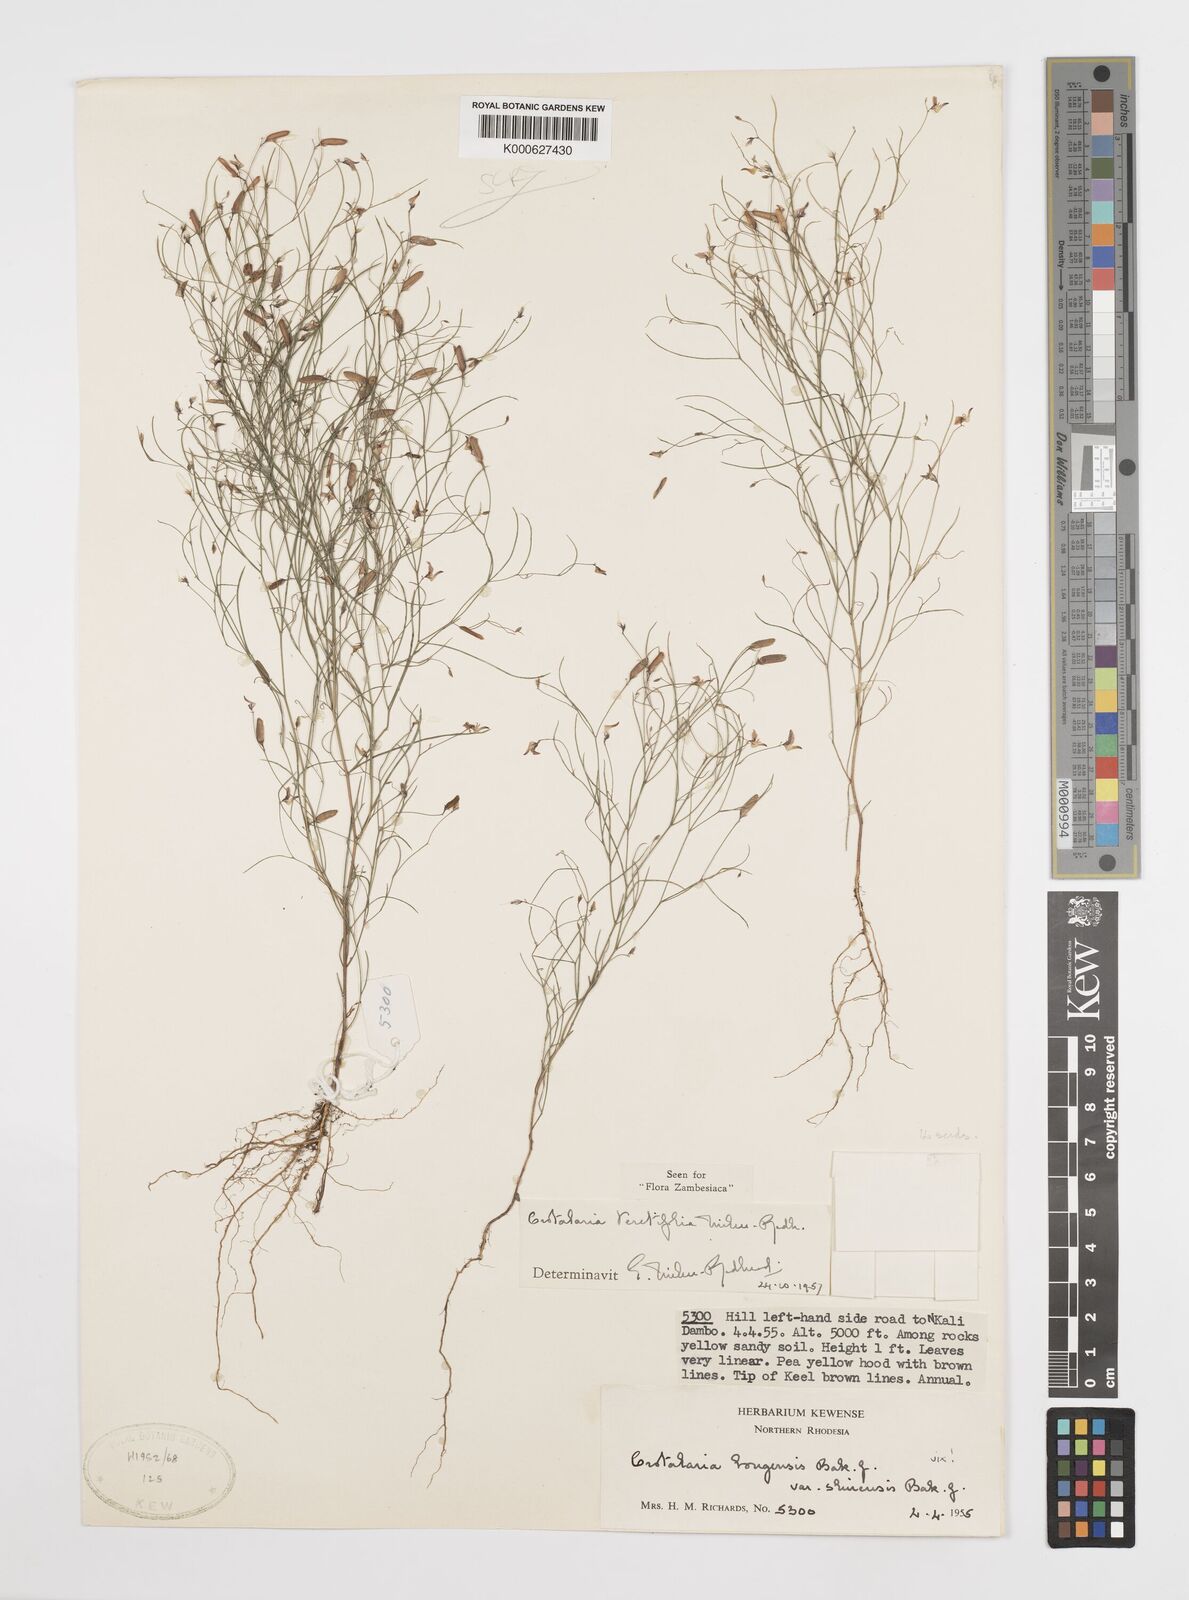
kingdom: Plantae
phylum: Tracheophyta
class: Magnoliopsida
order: Fabales
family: Fabaceae
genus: Crotalaria
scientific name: Crotalaria teretifolia
